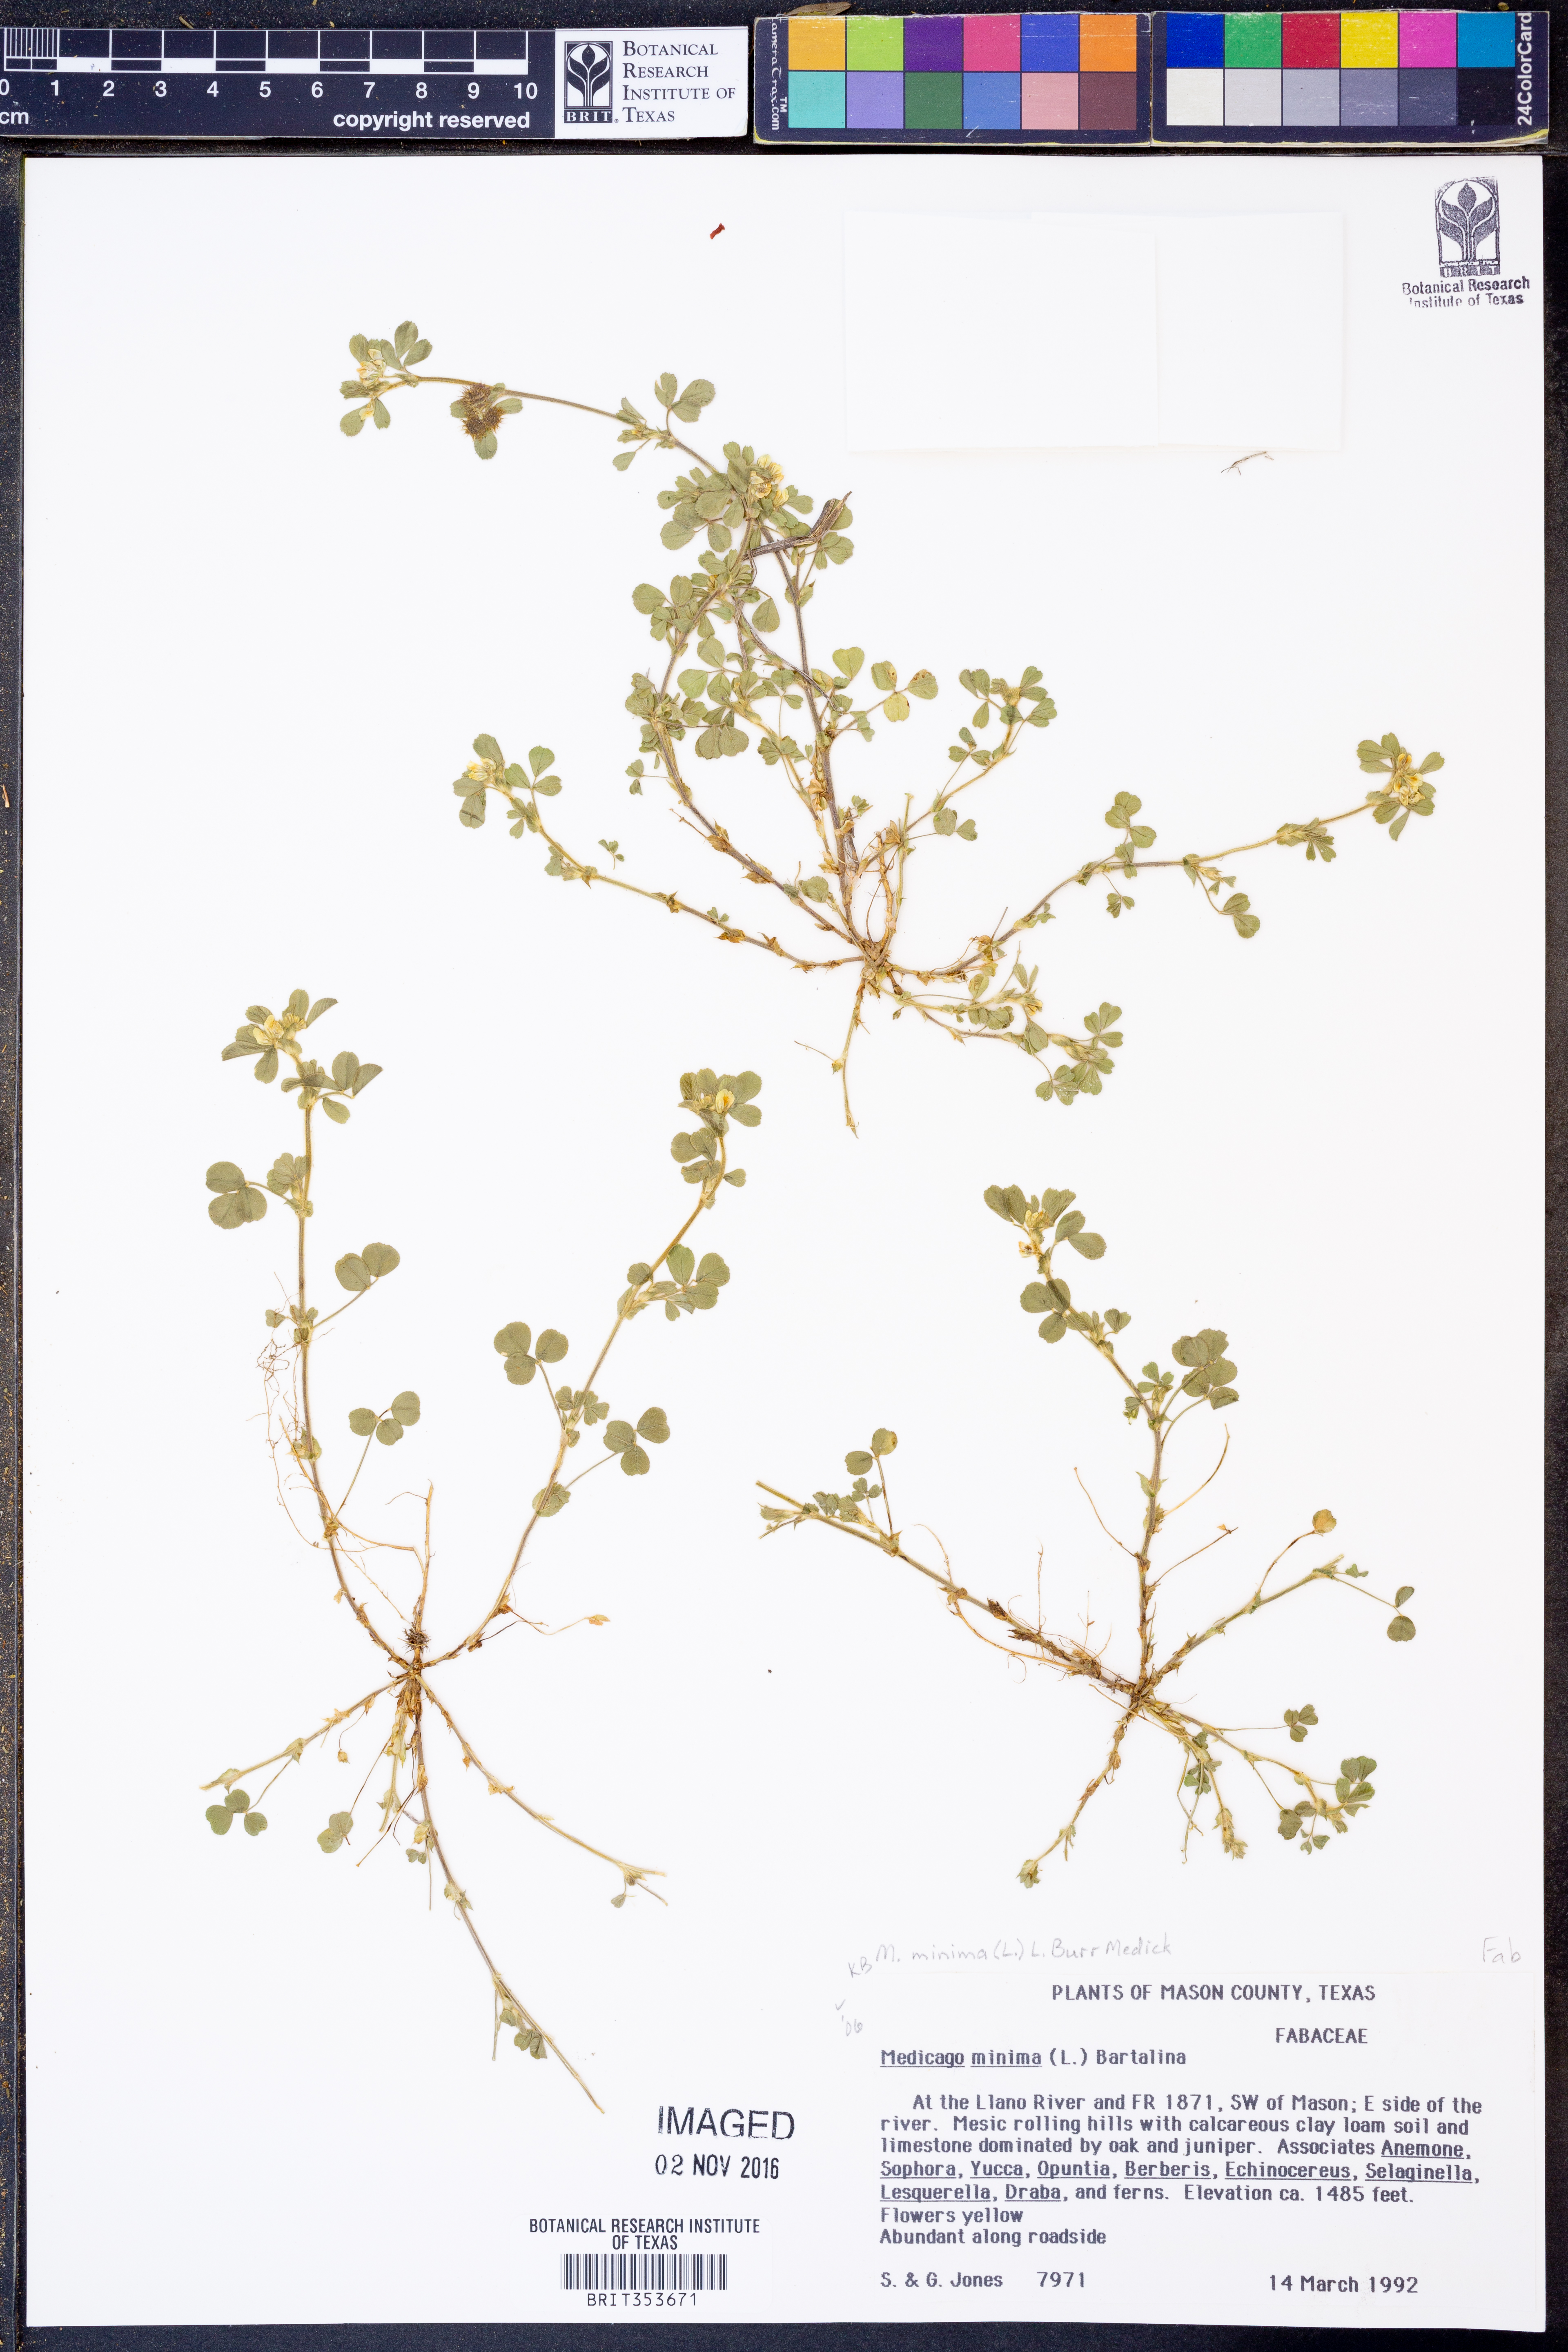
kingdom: Plantae
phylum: Tracheophyta
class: Magnoliopsida
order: Fabales
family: Fabaceae
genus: Medicago
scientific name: Medicago minima
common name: Little bur-clover
